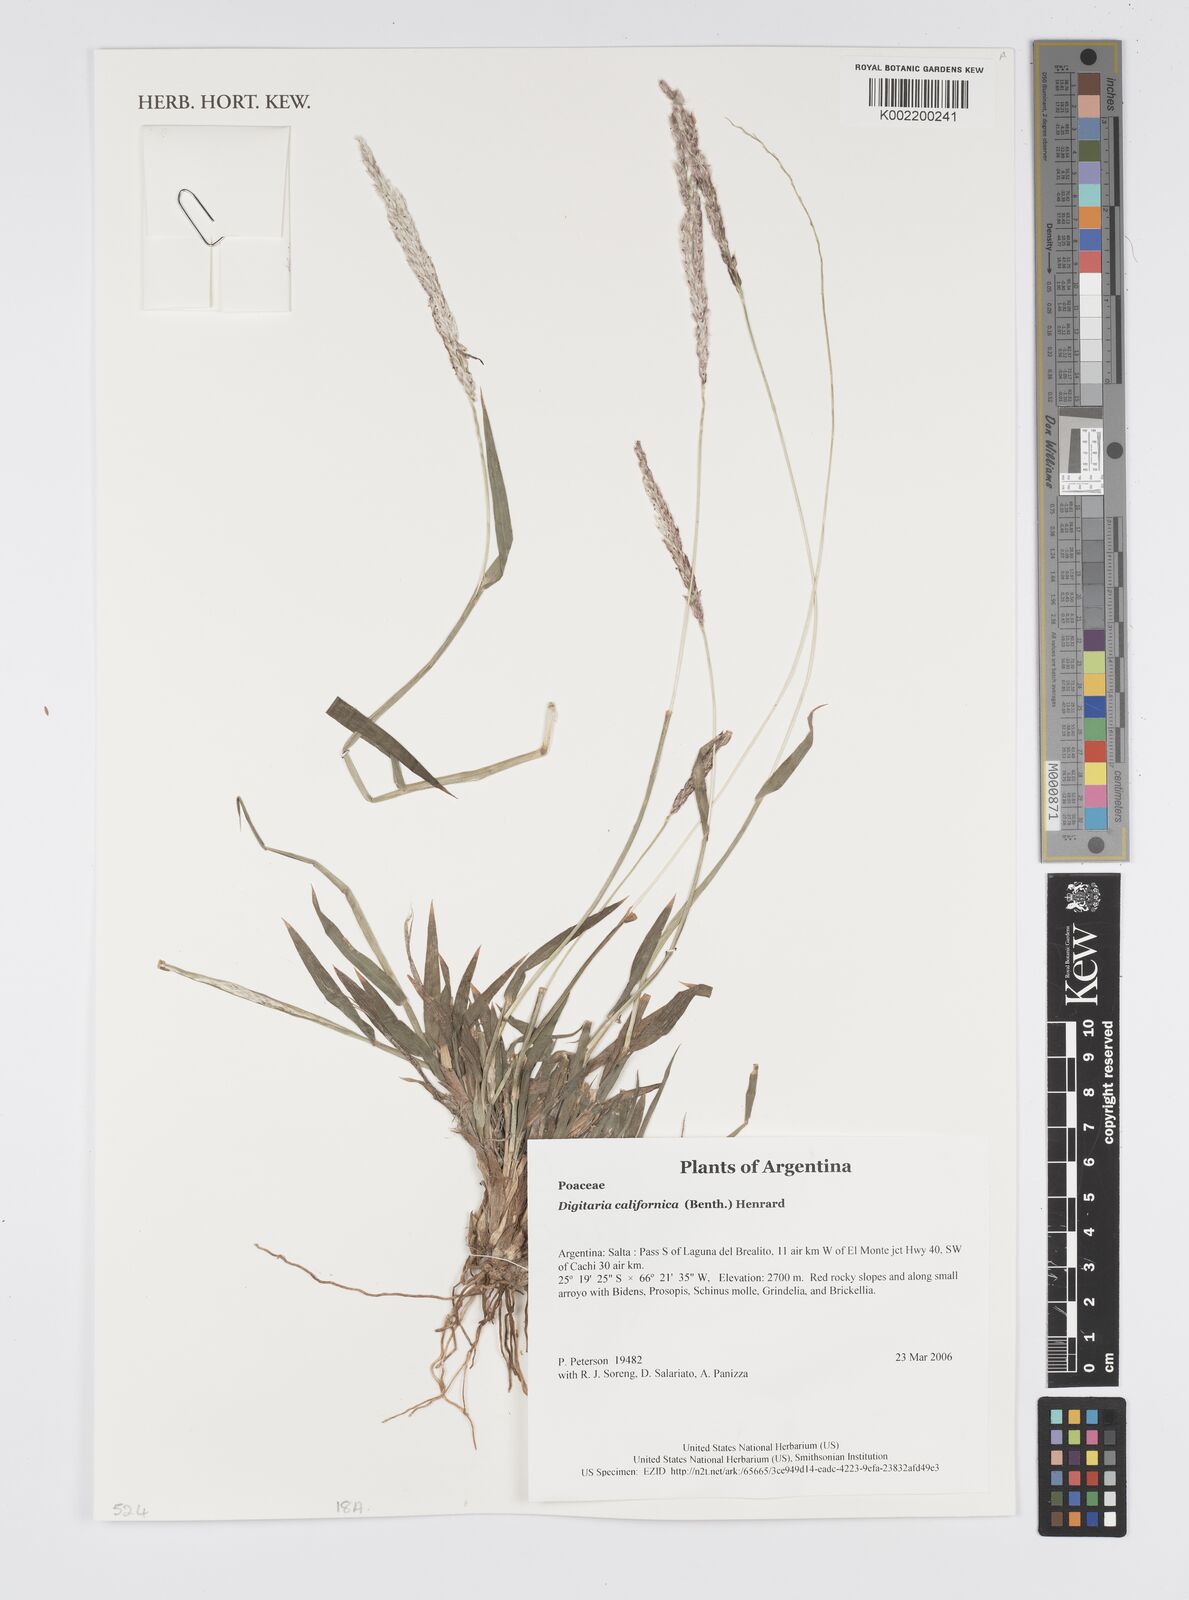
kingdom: Plantae
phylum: Tracheophyta
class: Liliopsida
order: Poales
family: Poaceae
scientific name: Poaceae
